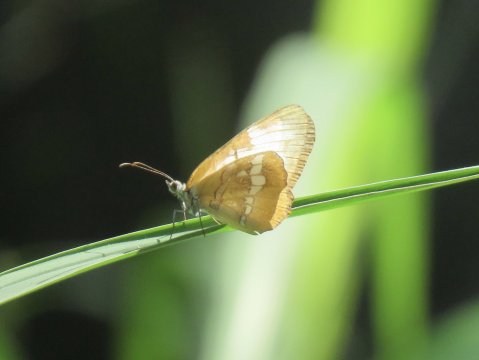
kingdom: Animalia
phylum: Arthropoda
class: Insecta
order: Lepidoptera
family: Nymphalidae
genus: Mestra
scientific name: Mestra amymone
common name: Common Mestra
